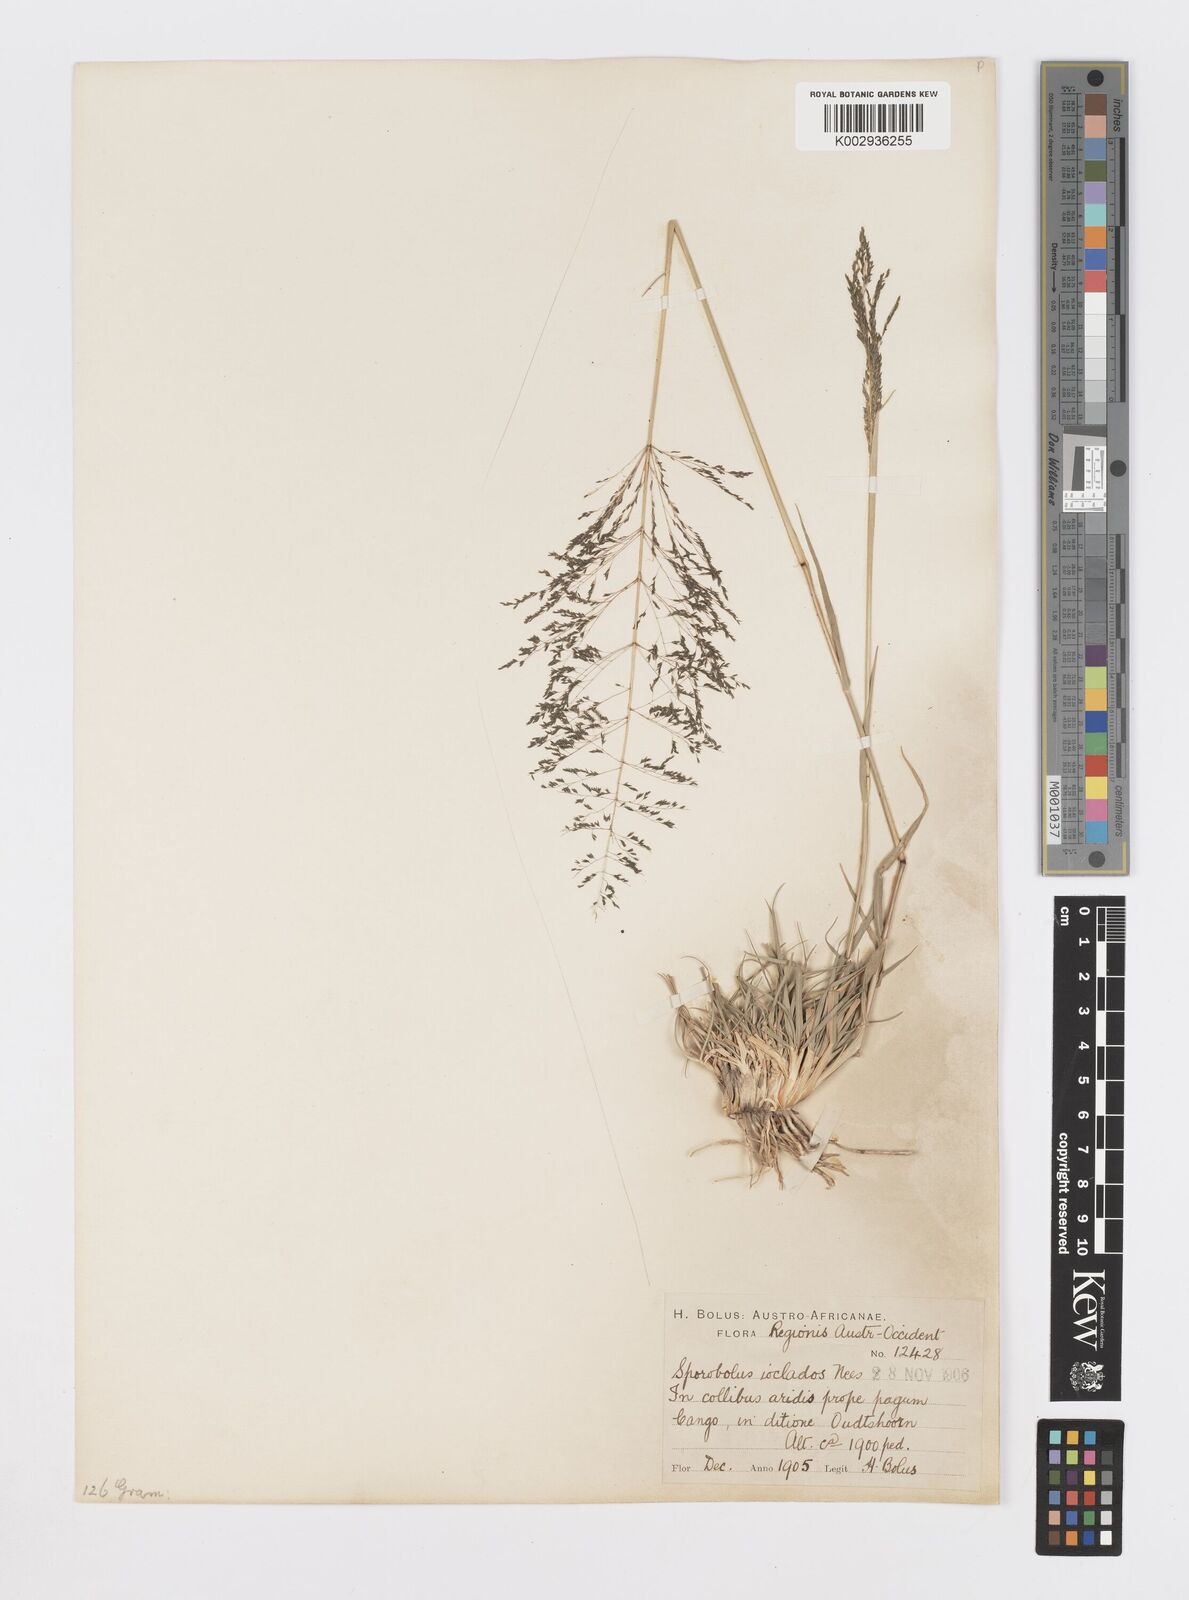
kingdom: Plantae
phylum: Tracheophyta
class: Liliopsida
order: Poales
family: Poaceae
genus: Sporobolus
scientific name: Sporobolus ioclados
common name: Pan dropseed
